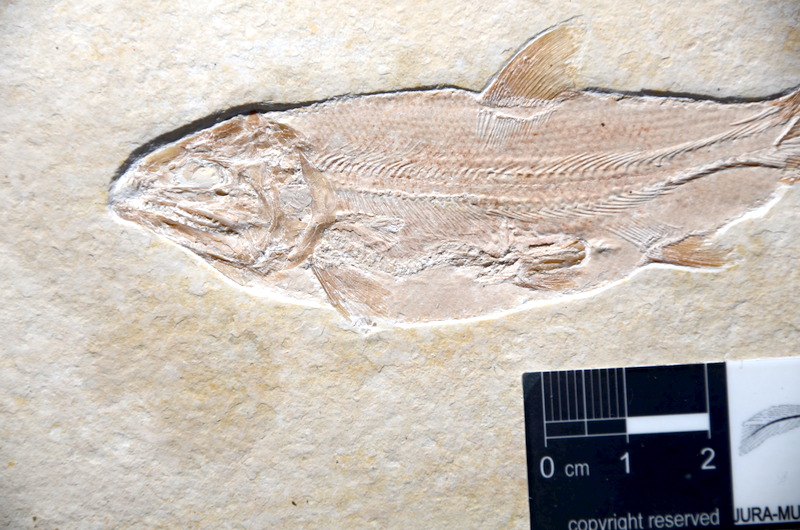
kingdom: Animalia
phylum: Chordata
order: Salmoniformes
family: Orthogonikleithridae
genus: Leptolepides
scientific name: Leptolepides sprattiformis
